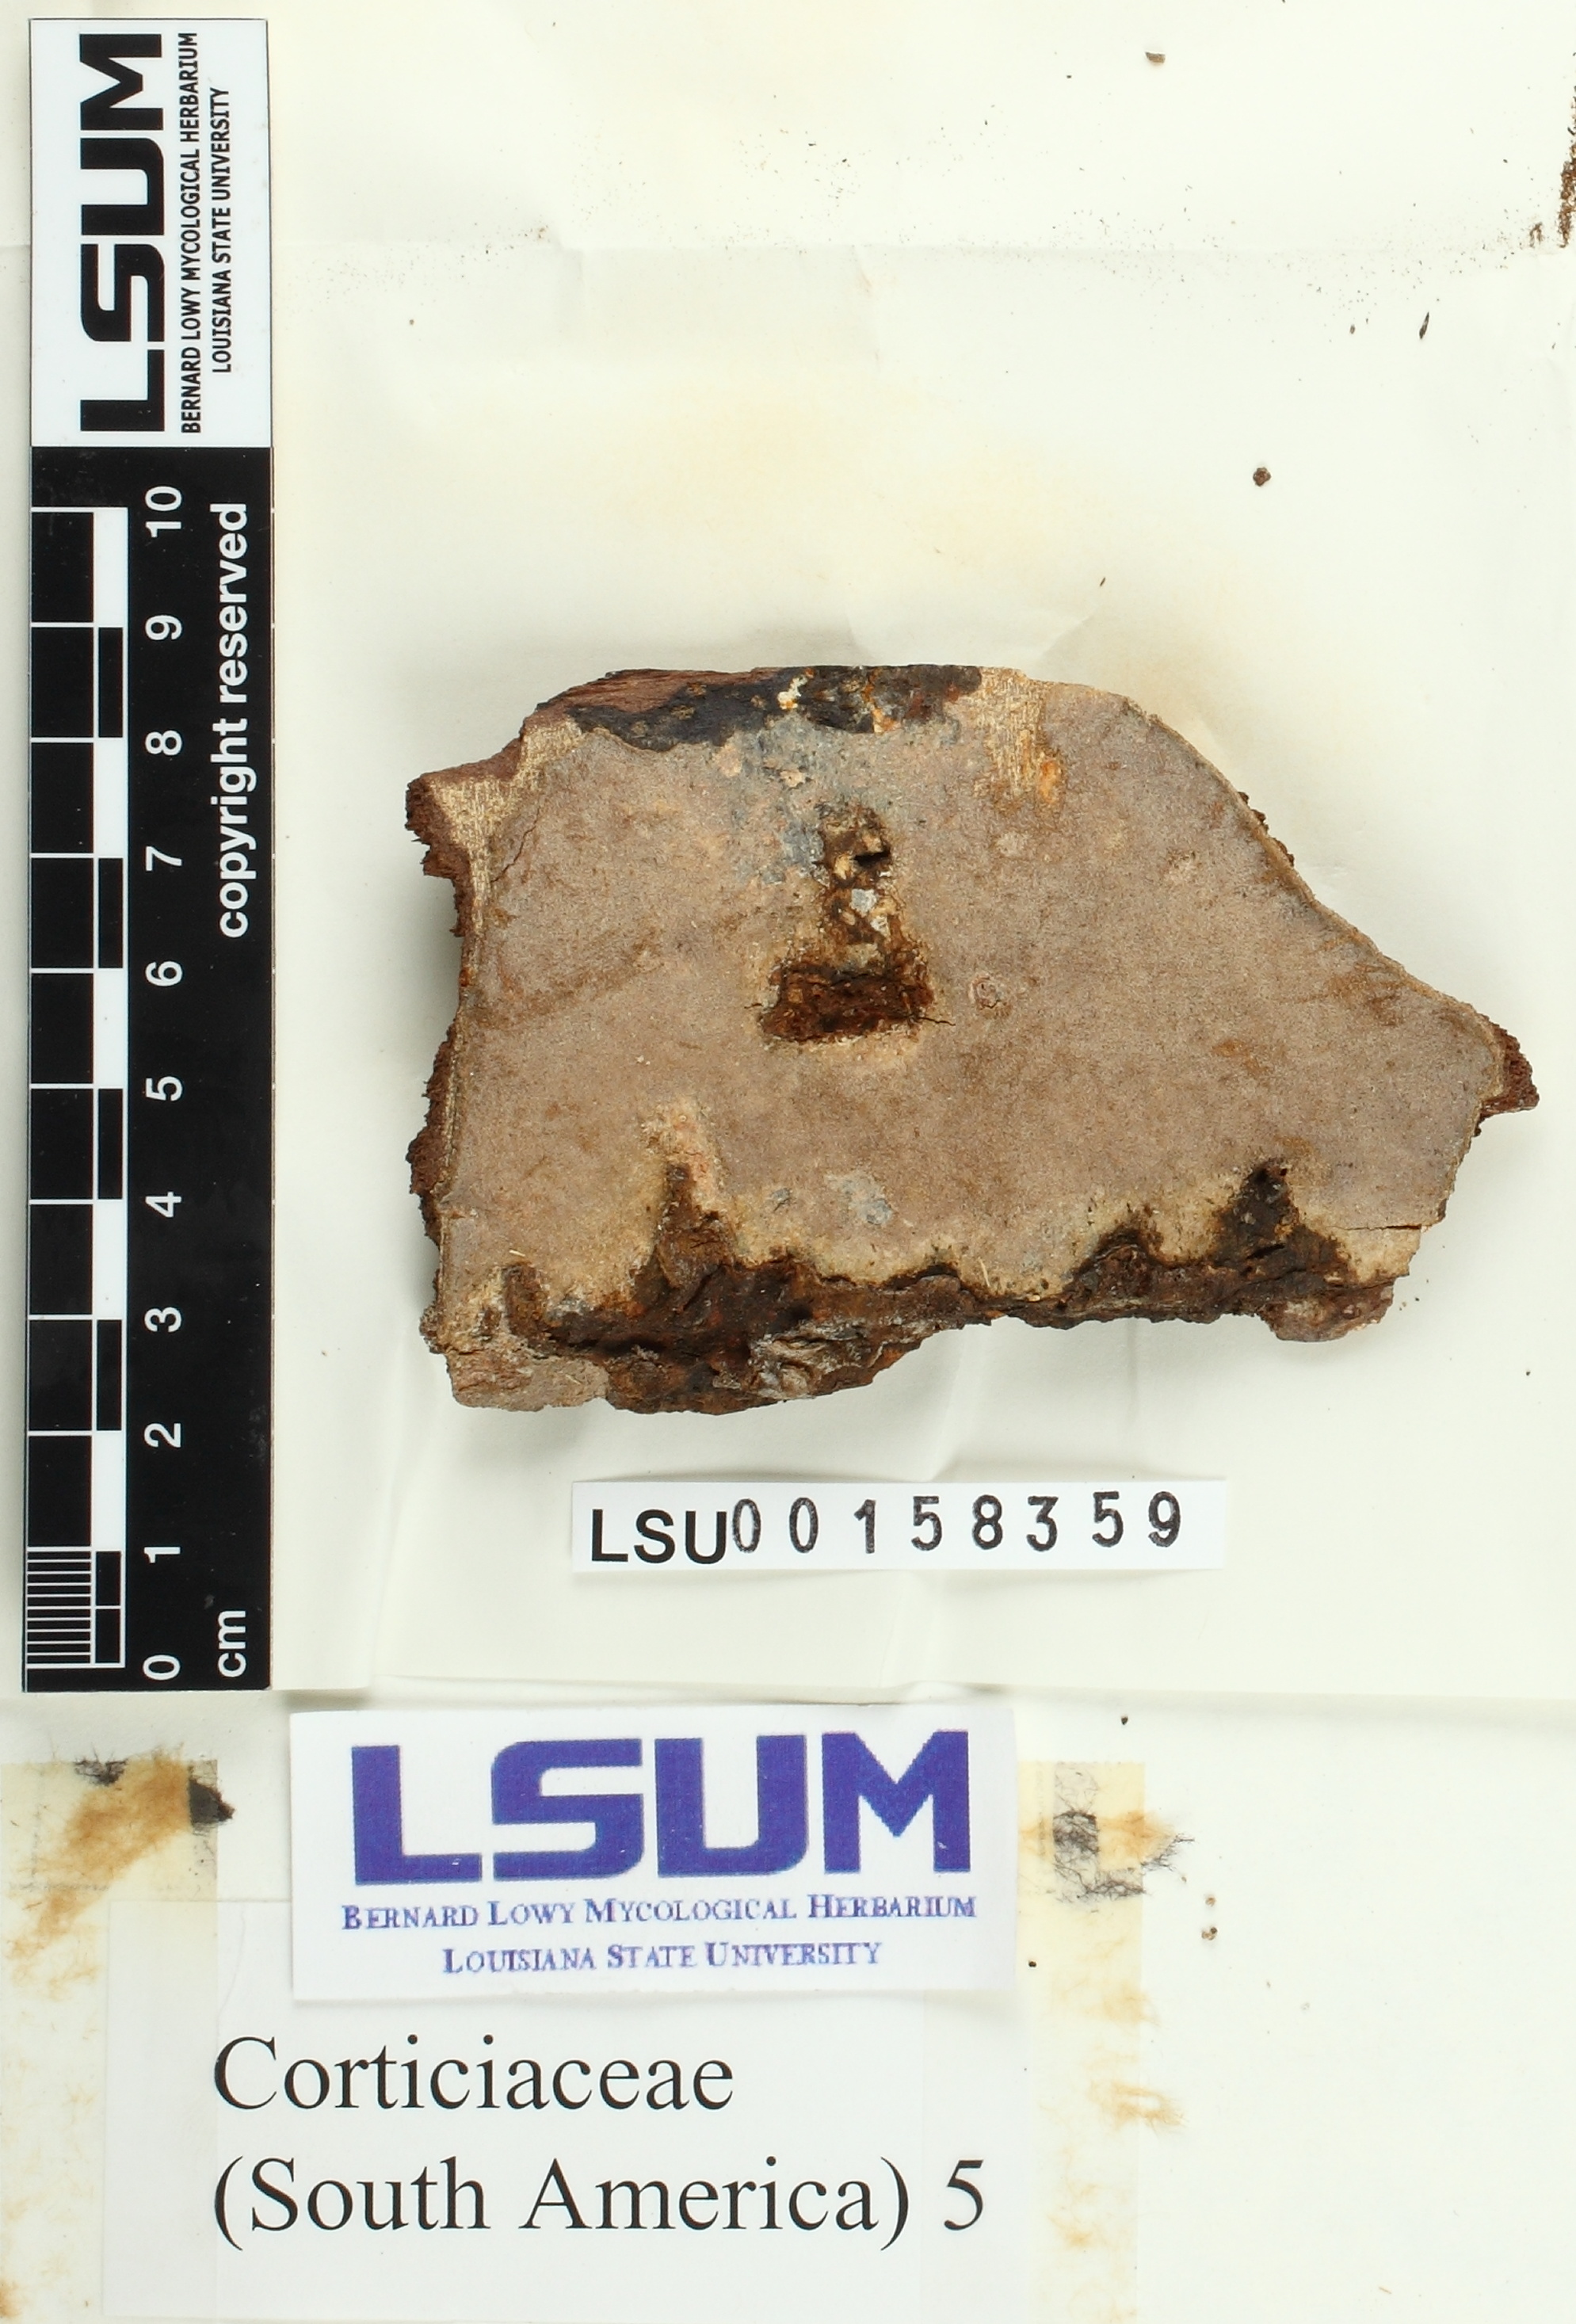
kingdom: Fungi
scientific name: Fungi
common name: Fungi
